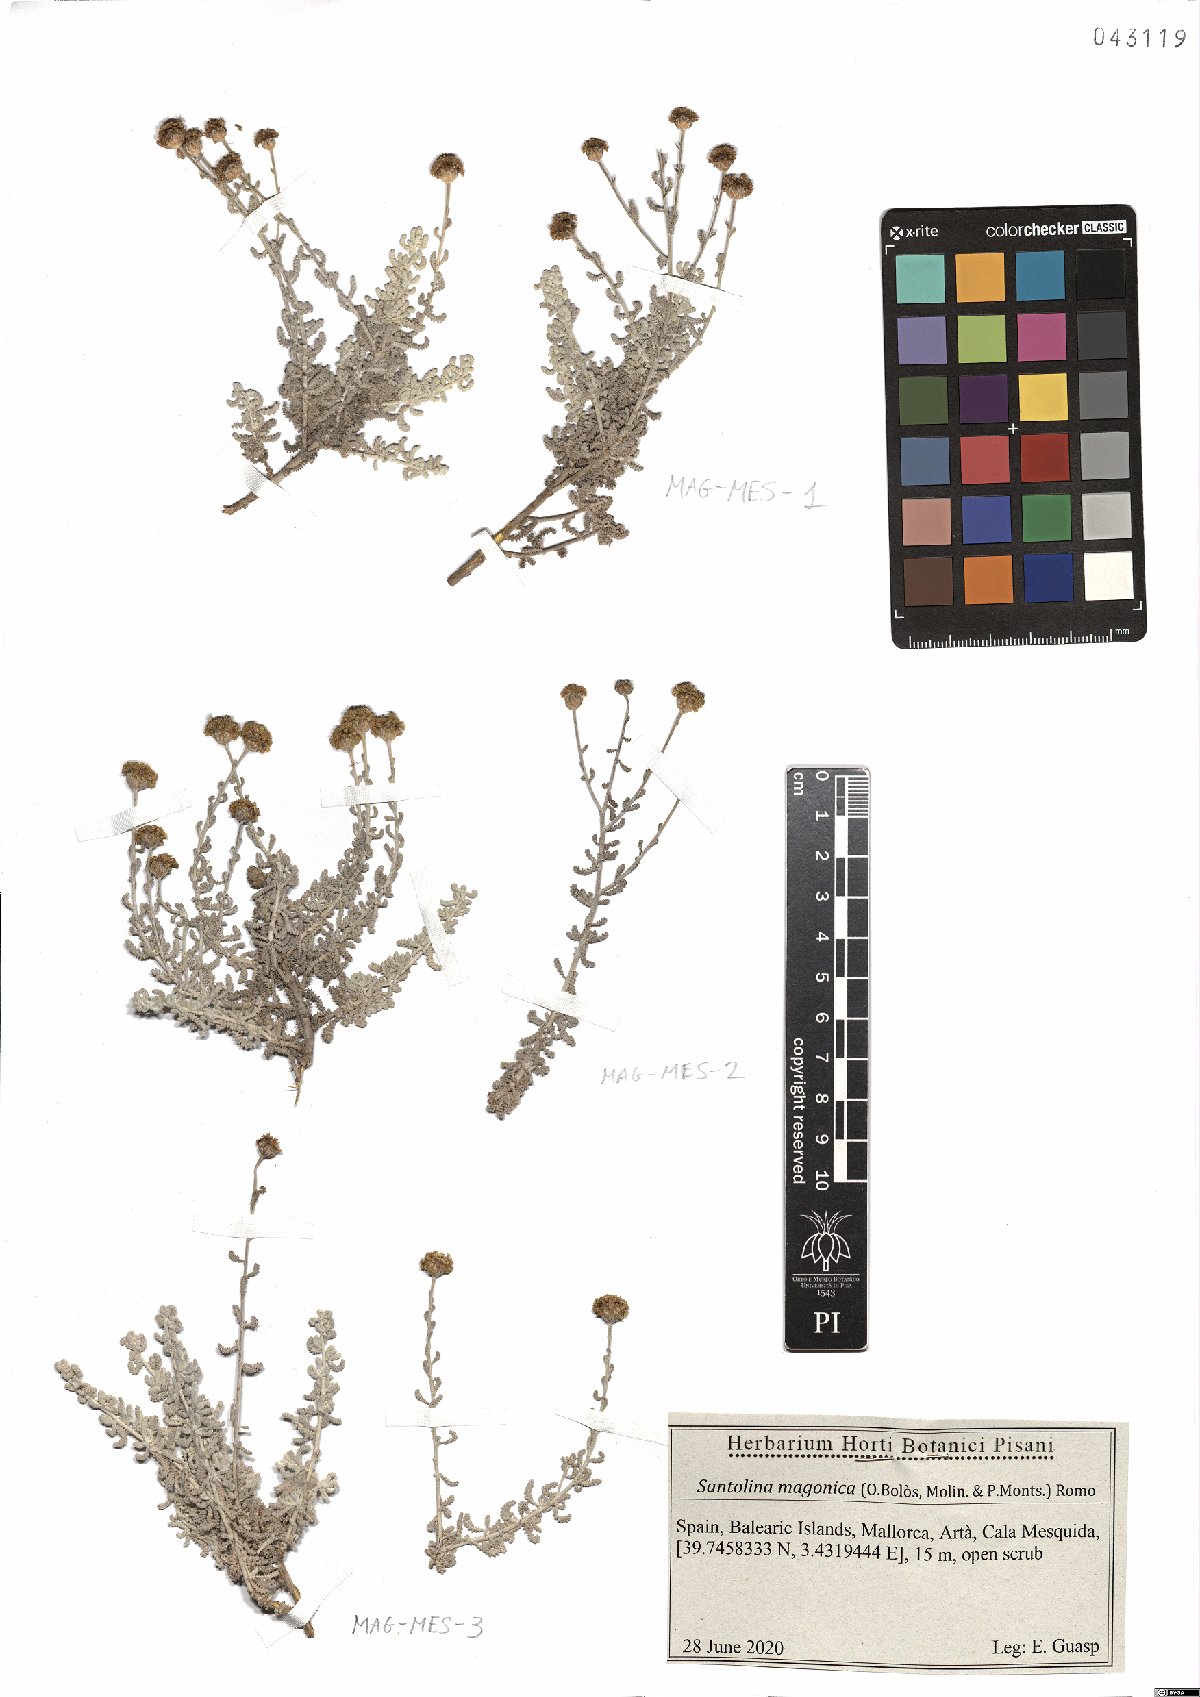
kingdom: Plantae
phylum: Tracheophyta
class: Magnoliopsida
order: Asterales
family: Asteraceae
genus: Santolina
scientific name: Santolina magonica
